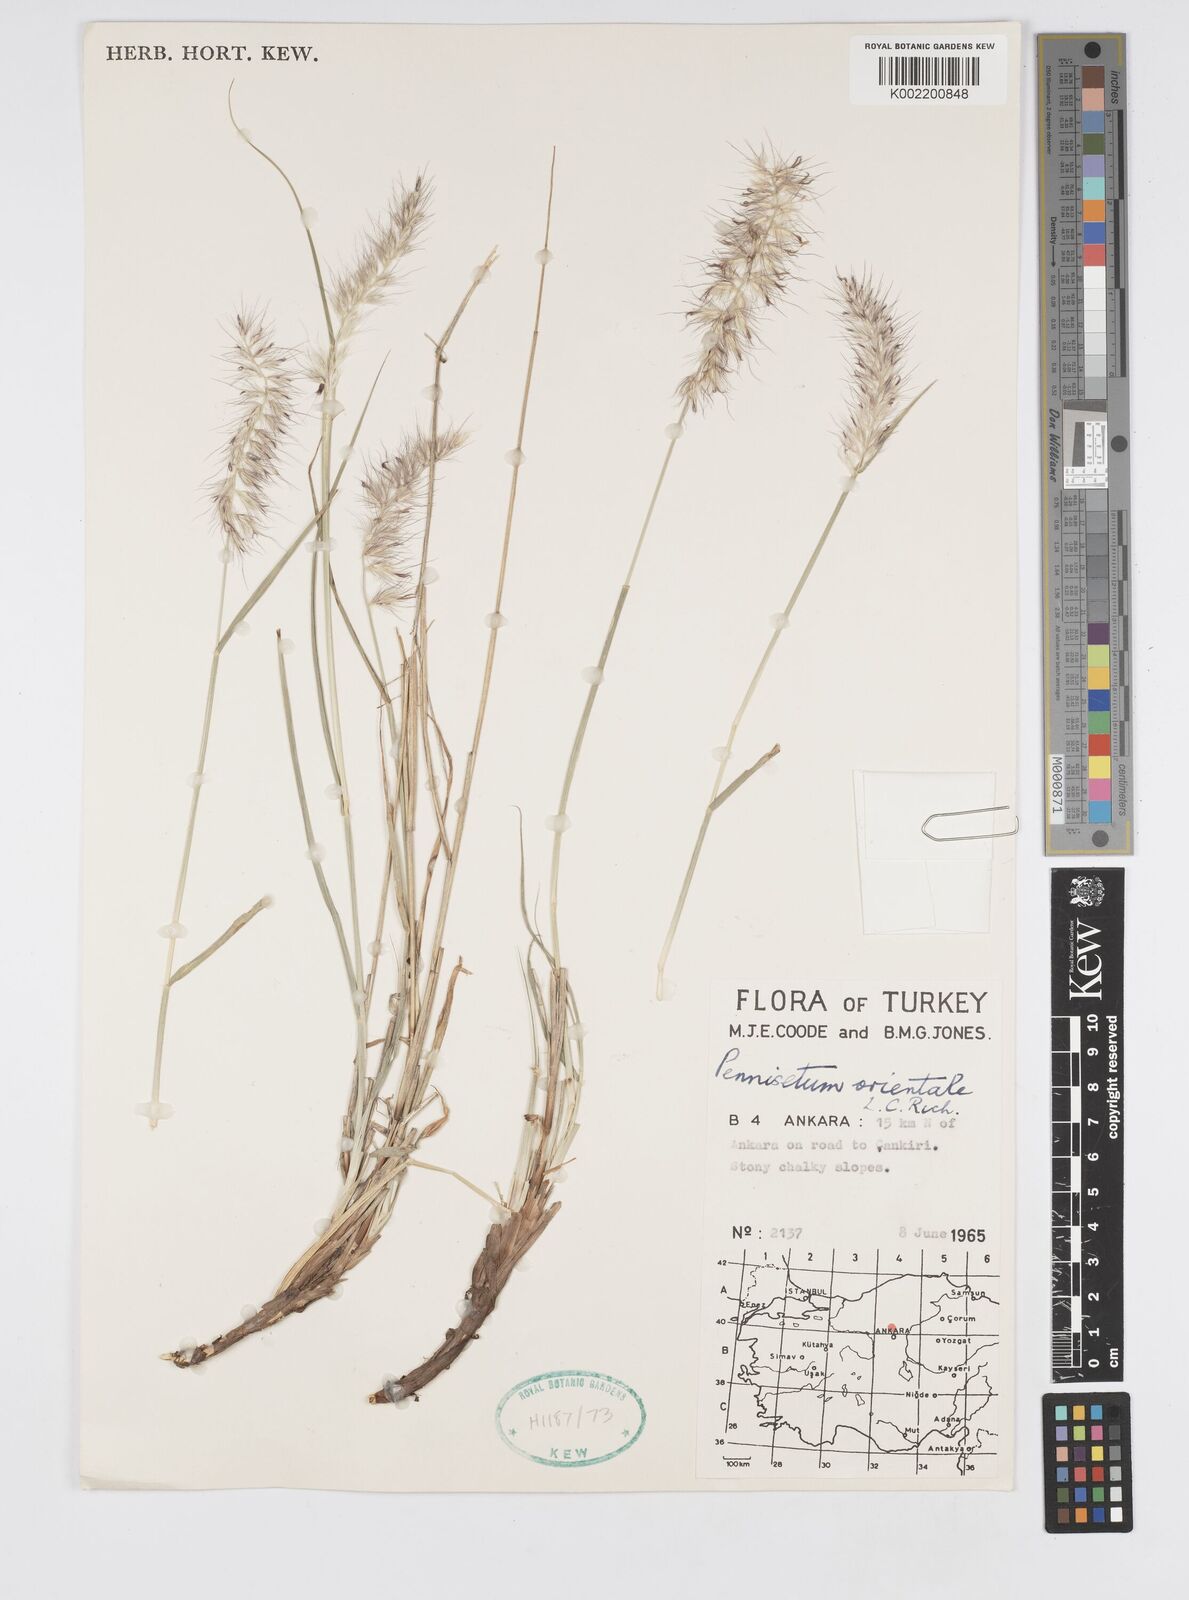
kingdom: Plantae
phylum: Tracheophyta
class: Liliopsida
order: Poales
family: Poaceae
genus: Cenchrus
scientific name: Cenchrus orientalis
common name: Oriental fountain grass
